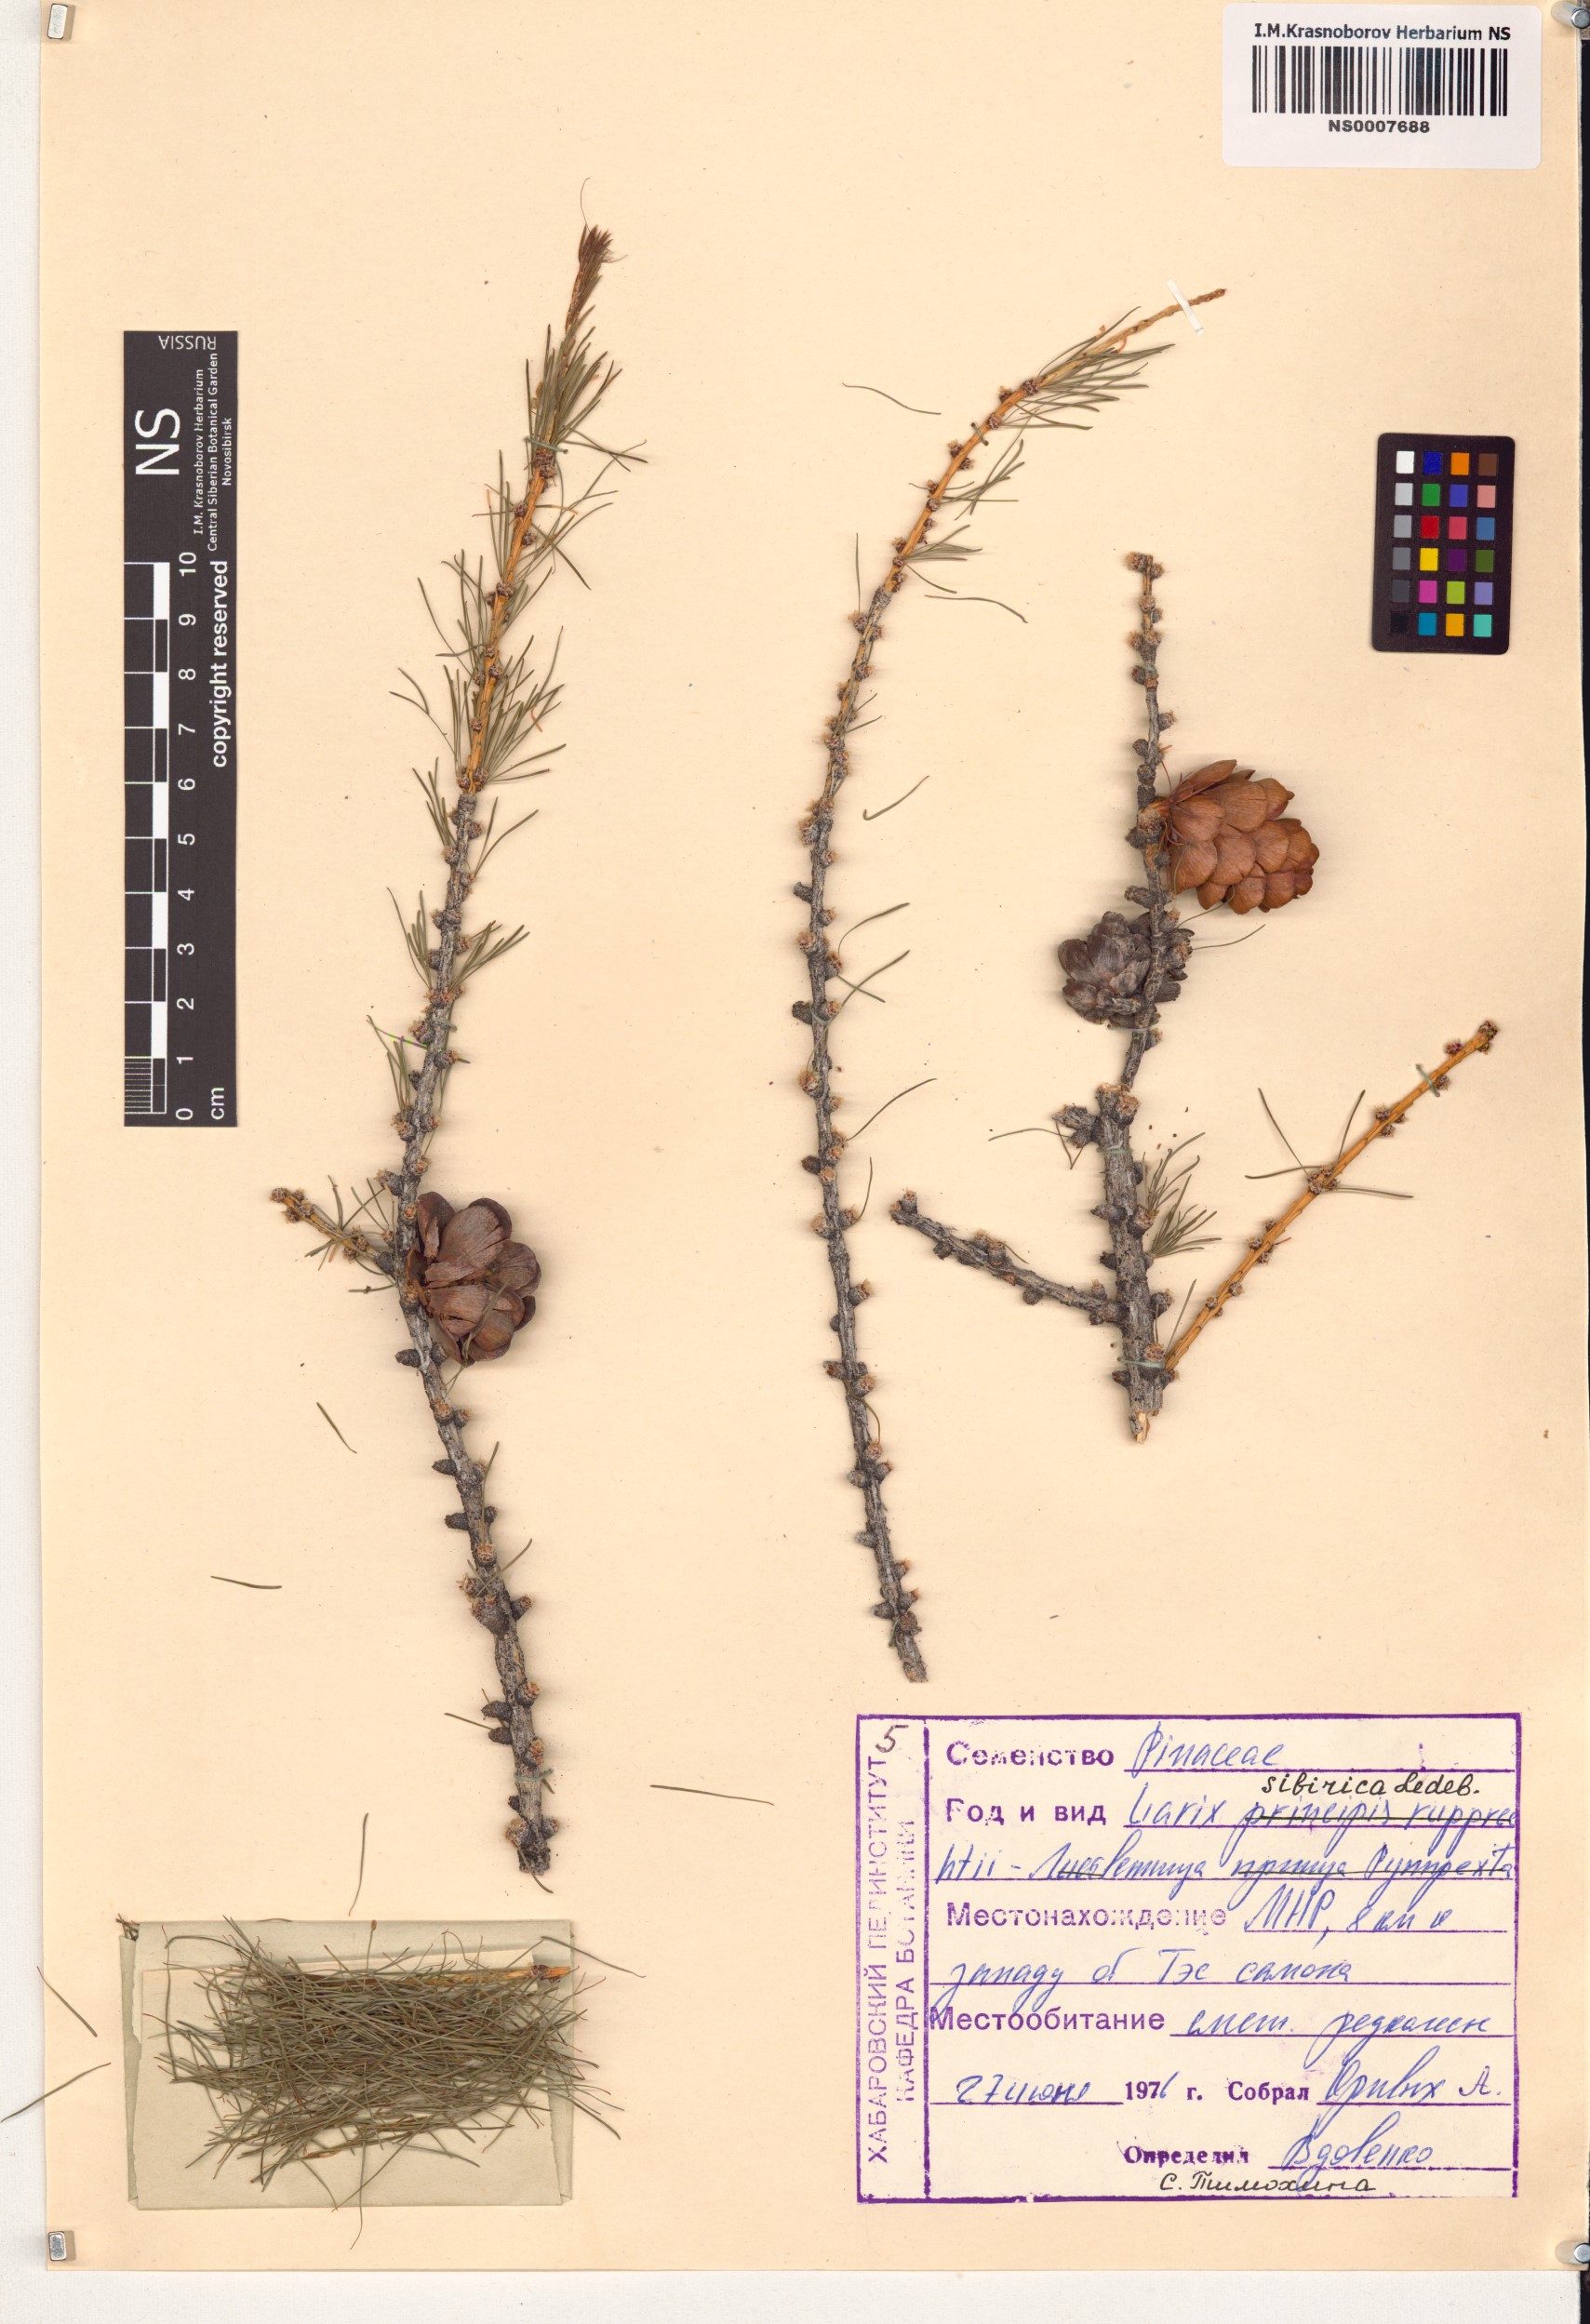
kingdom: Plantae
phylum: Tracheophyta
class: Pinopsida
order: Pinales
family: Pinaceae
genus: Larix
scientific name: Larix sibirica
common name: Siberian larch
